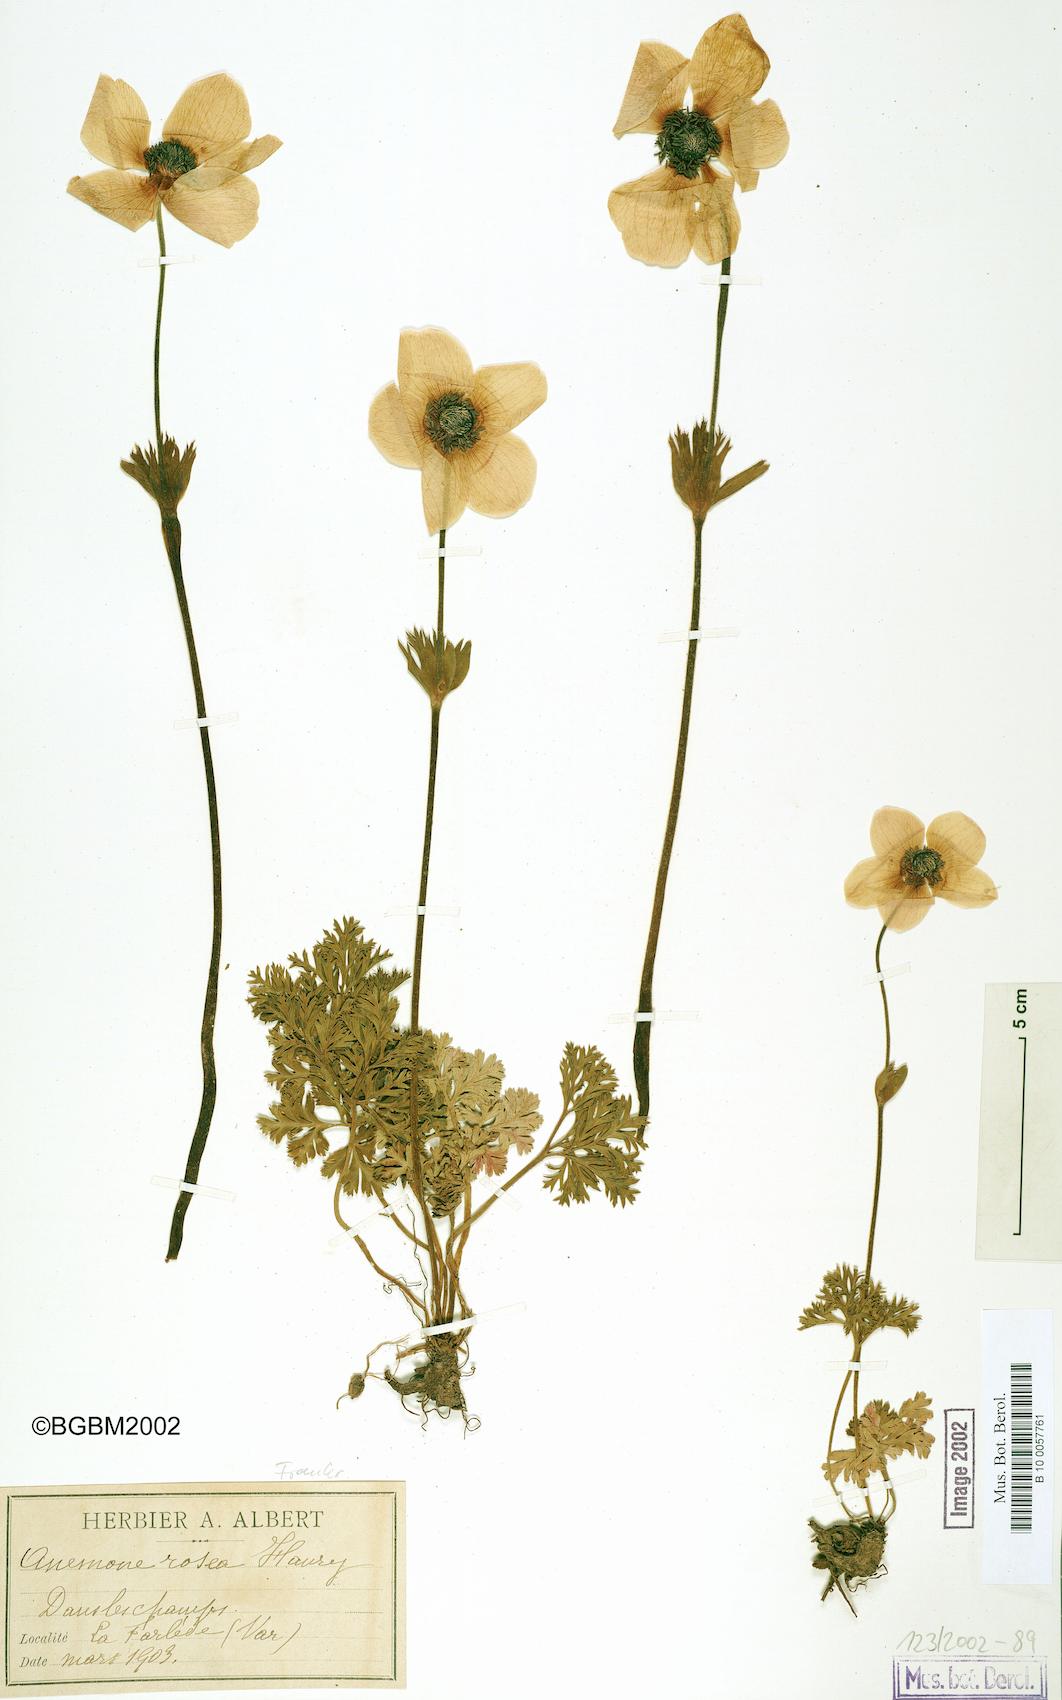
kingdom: Plantae
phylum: Tracheophyta
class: Magnoliopsida
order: Ranunculales
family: Ranunculaceae
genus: Anemone
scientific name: Anemone rosea
